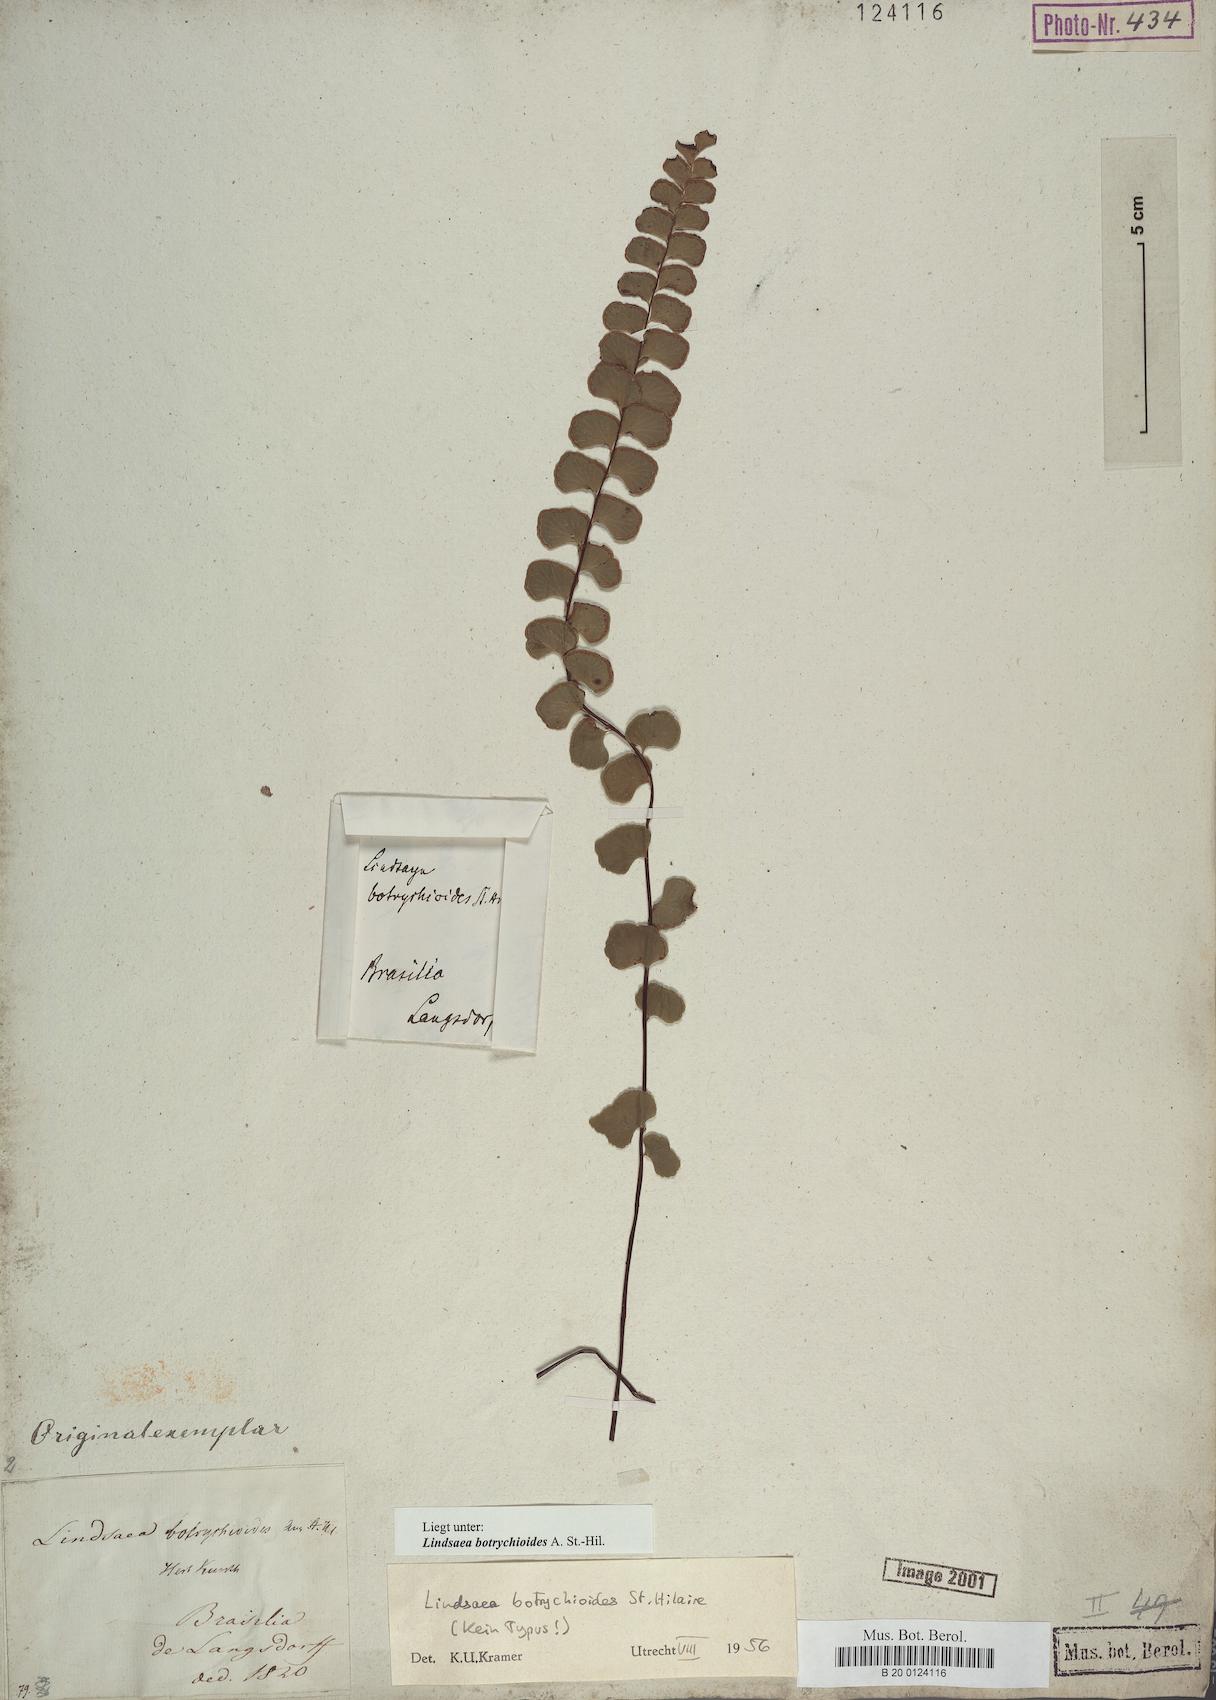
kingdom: Plantae
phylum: Tracheophyta
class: Polypodiopsida
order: Polypodiales
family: Lindsaeaceae
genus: Lindsaea
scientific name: Lindsaea botrychioides
